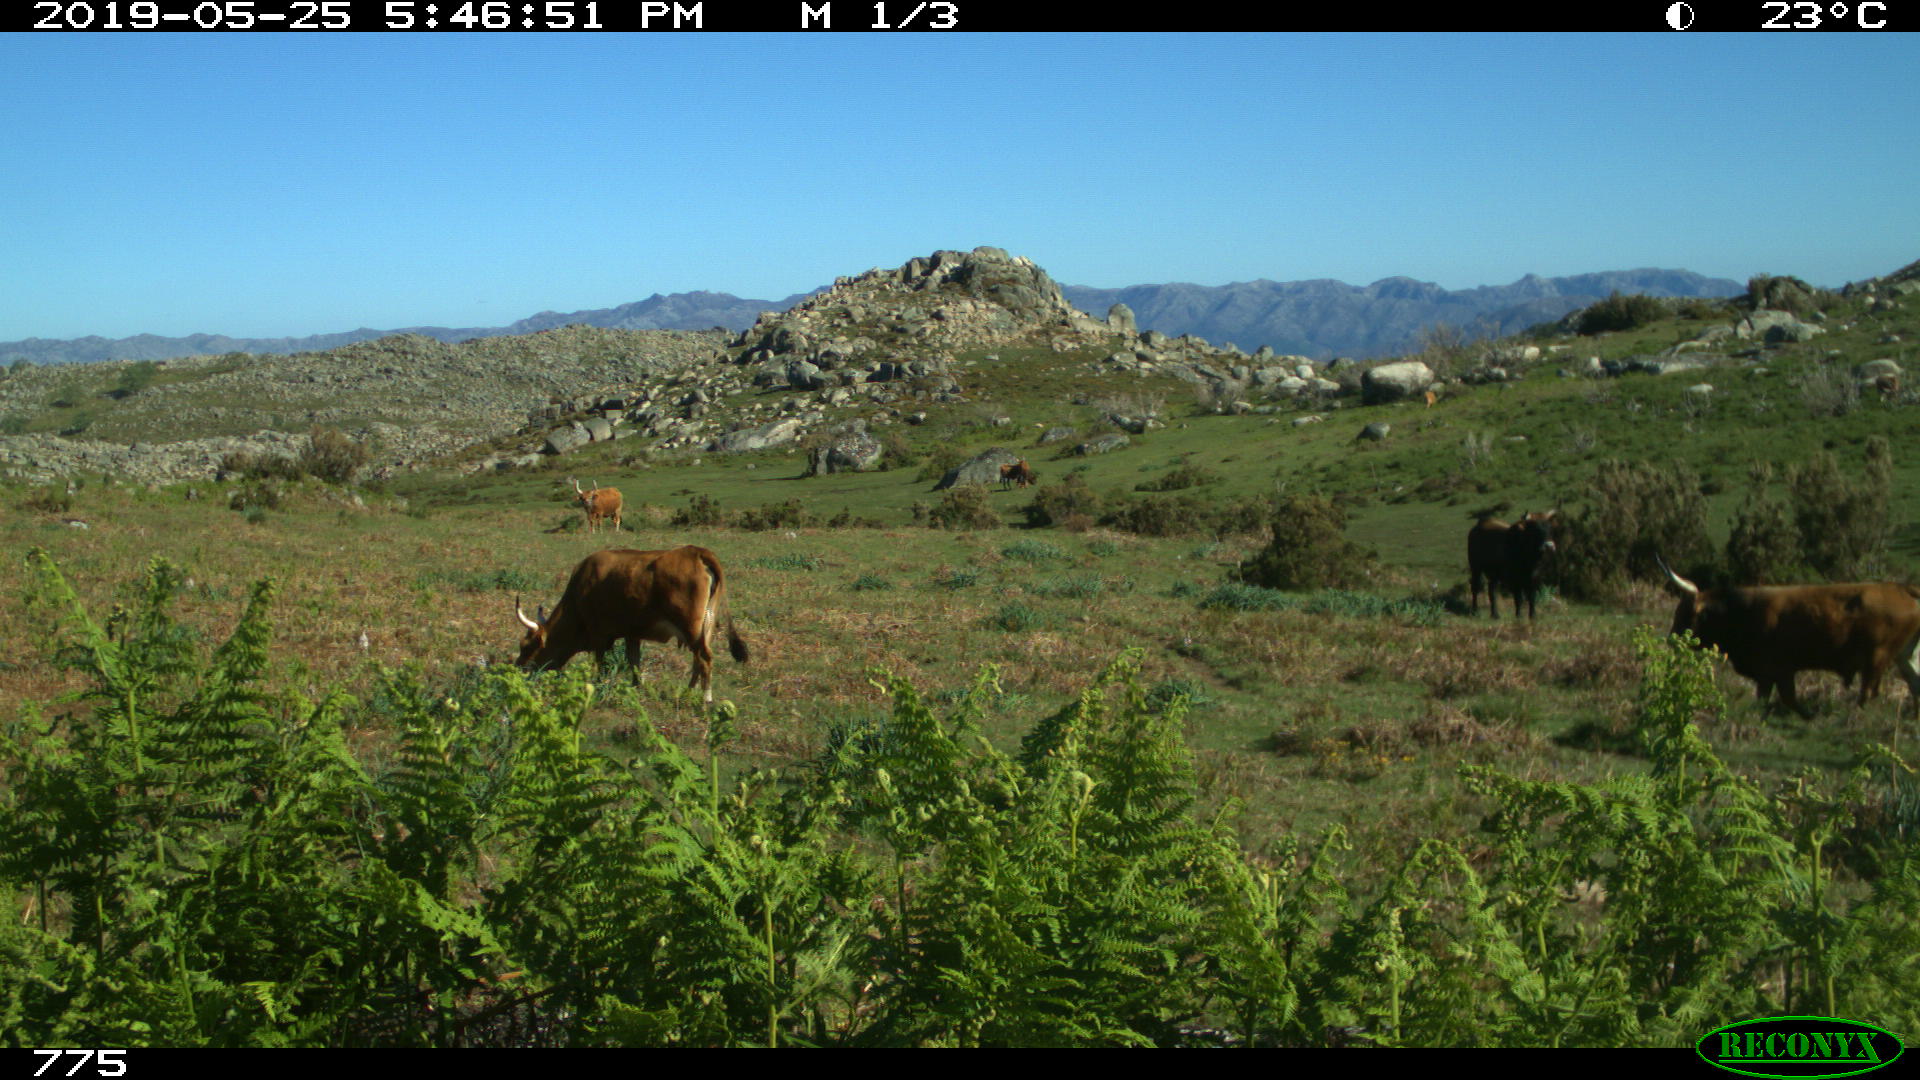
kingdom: Animalia
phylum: Chordata
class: Mammalia
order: Artiodactyla
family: Bovidae
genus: Bos
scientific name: Bos taurus
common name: Domesticated cattle
